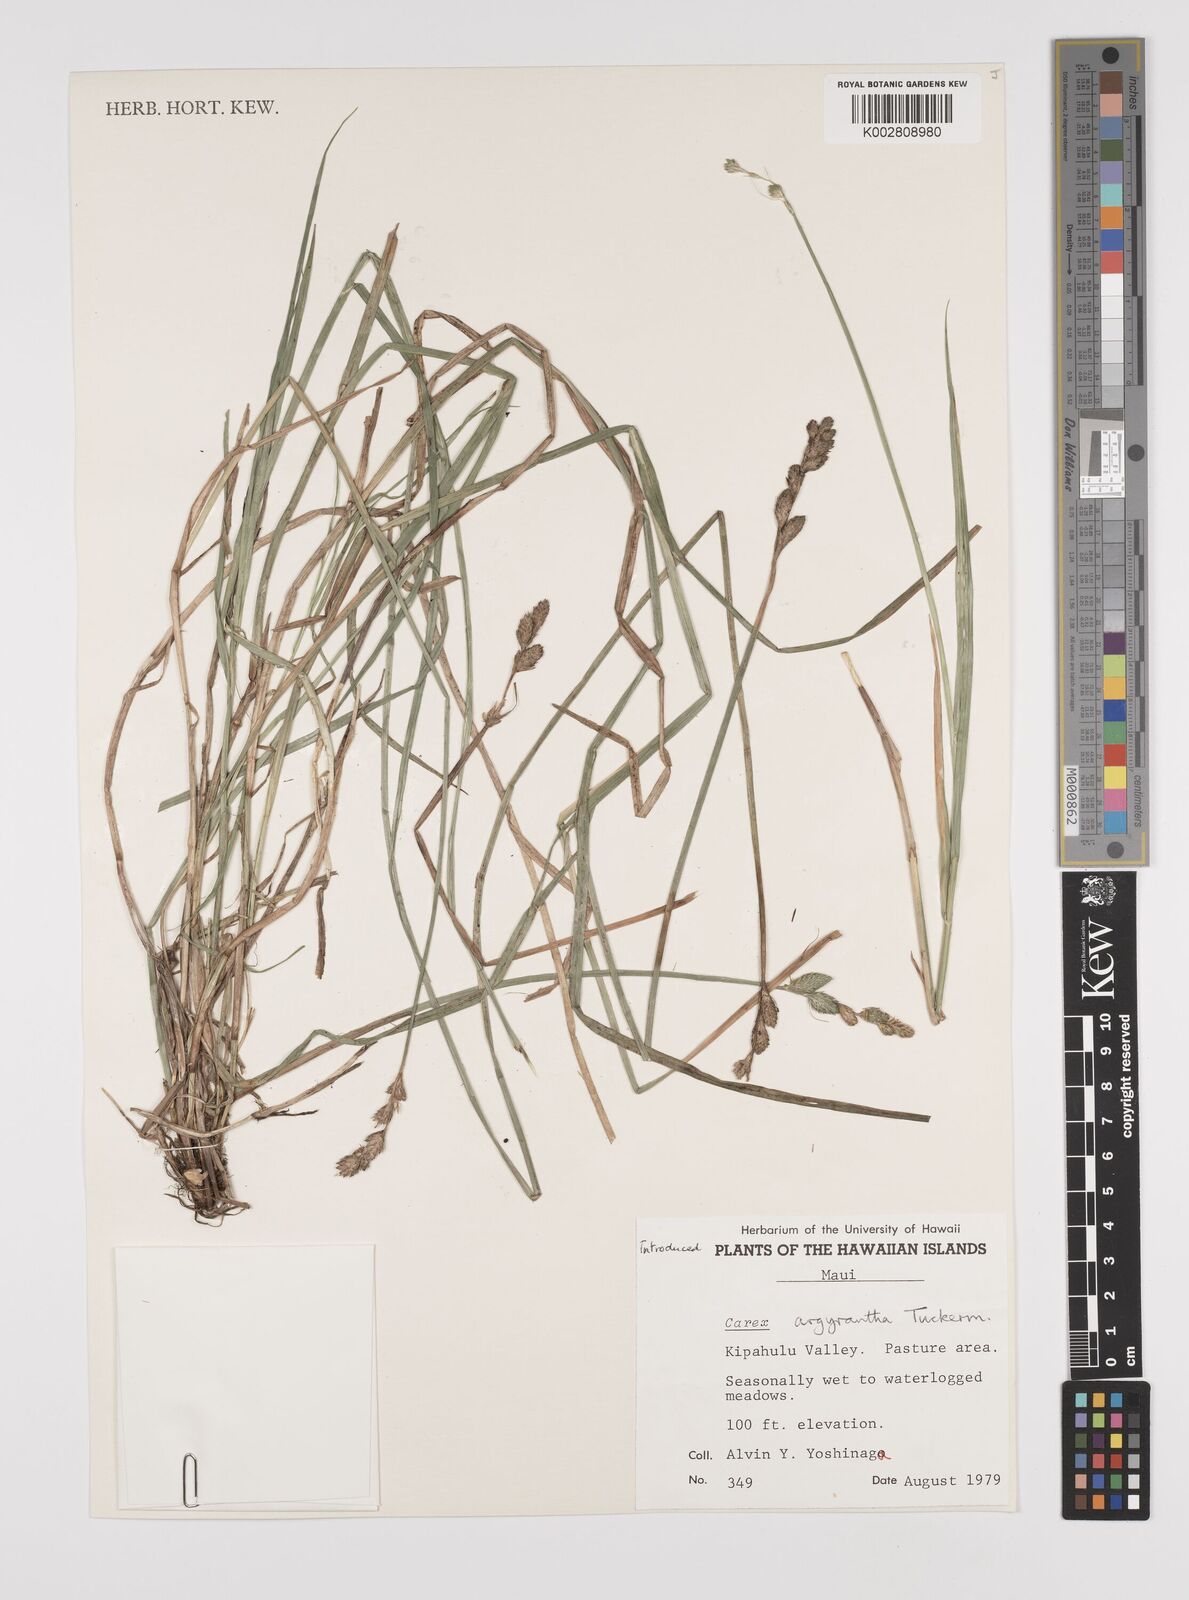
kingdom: Plantae
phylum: Tracheophyta
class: Liliopsida
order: Poales
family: Cyperaceae
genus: Carex
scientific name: Carex argyrantha
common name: Silvery-flowered sedge
